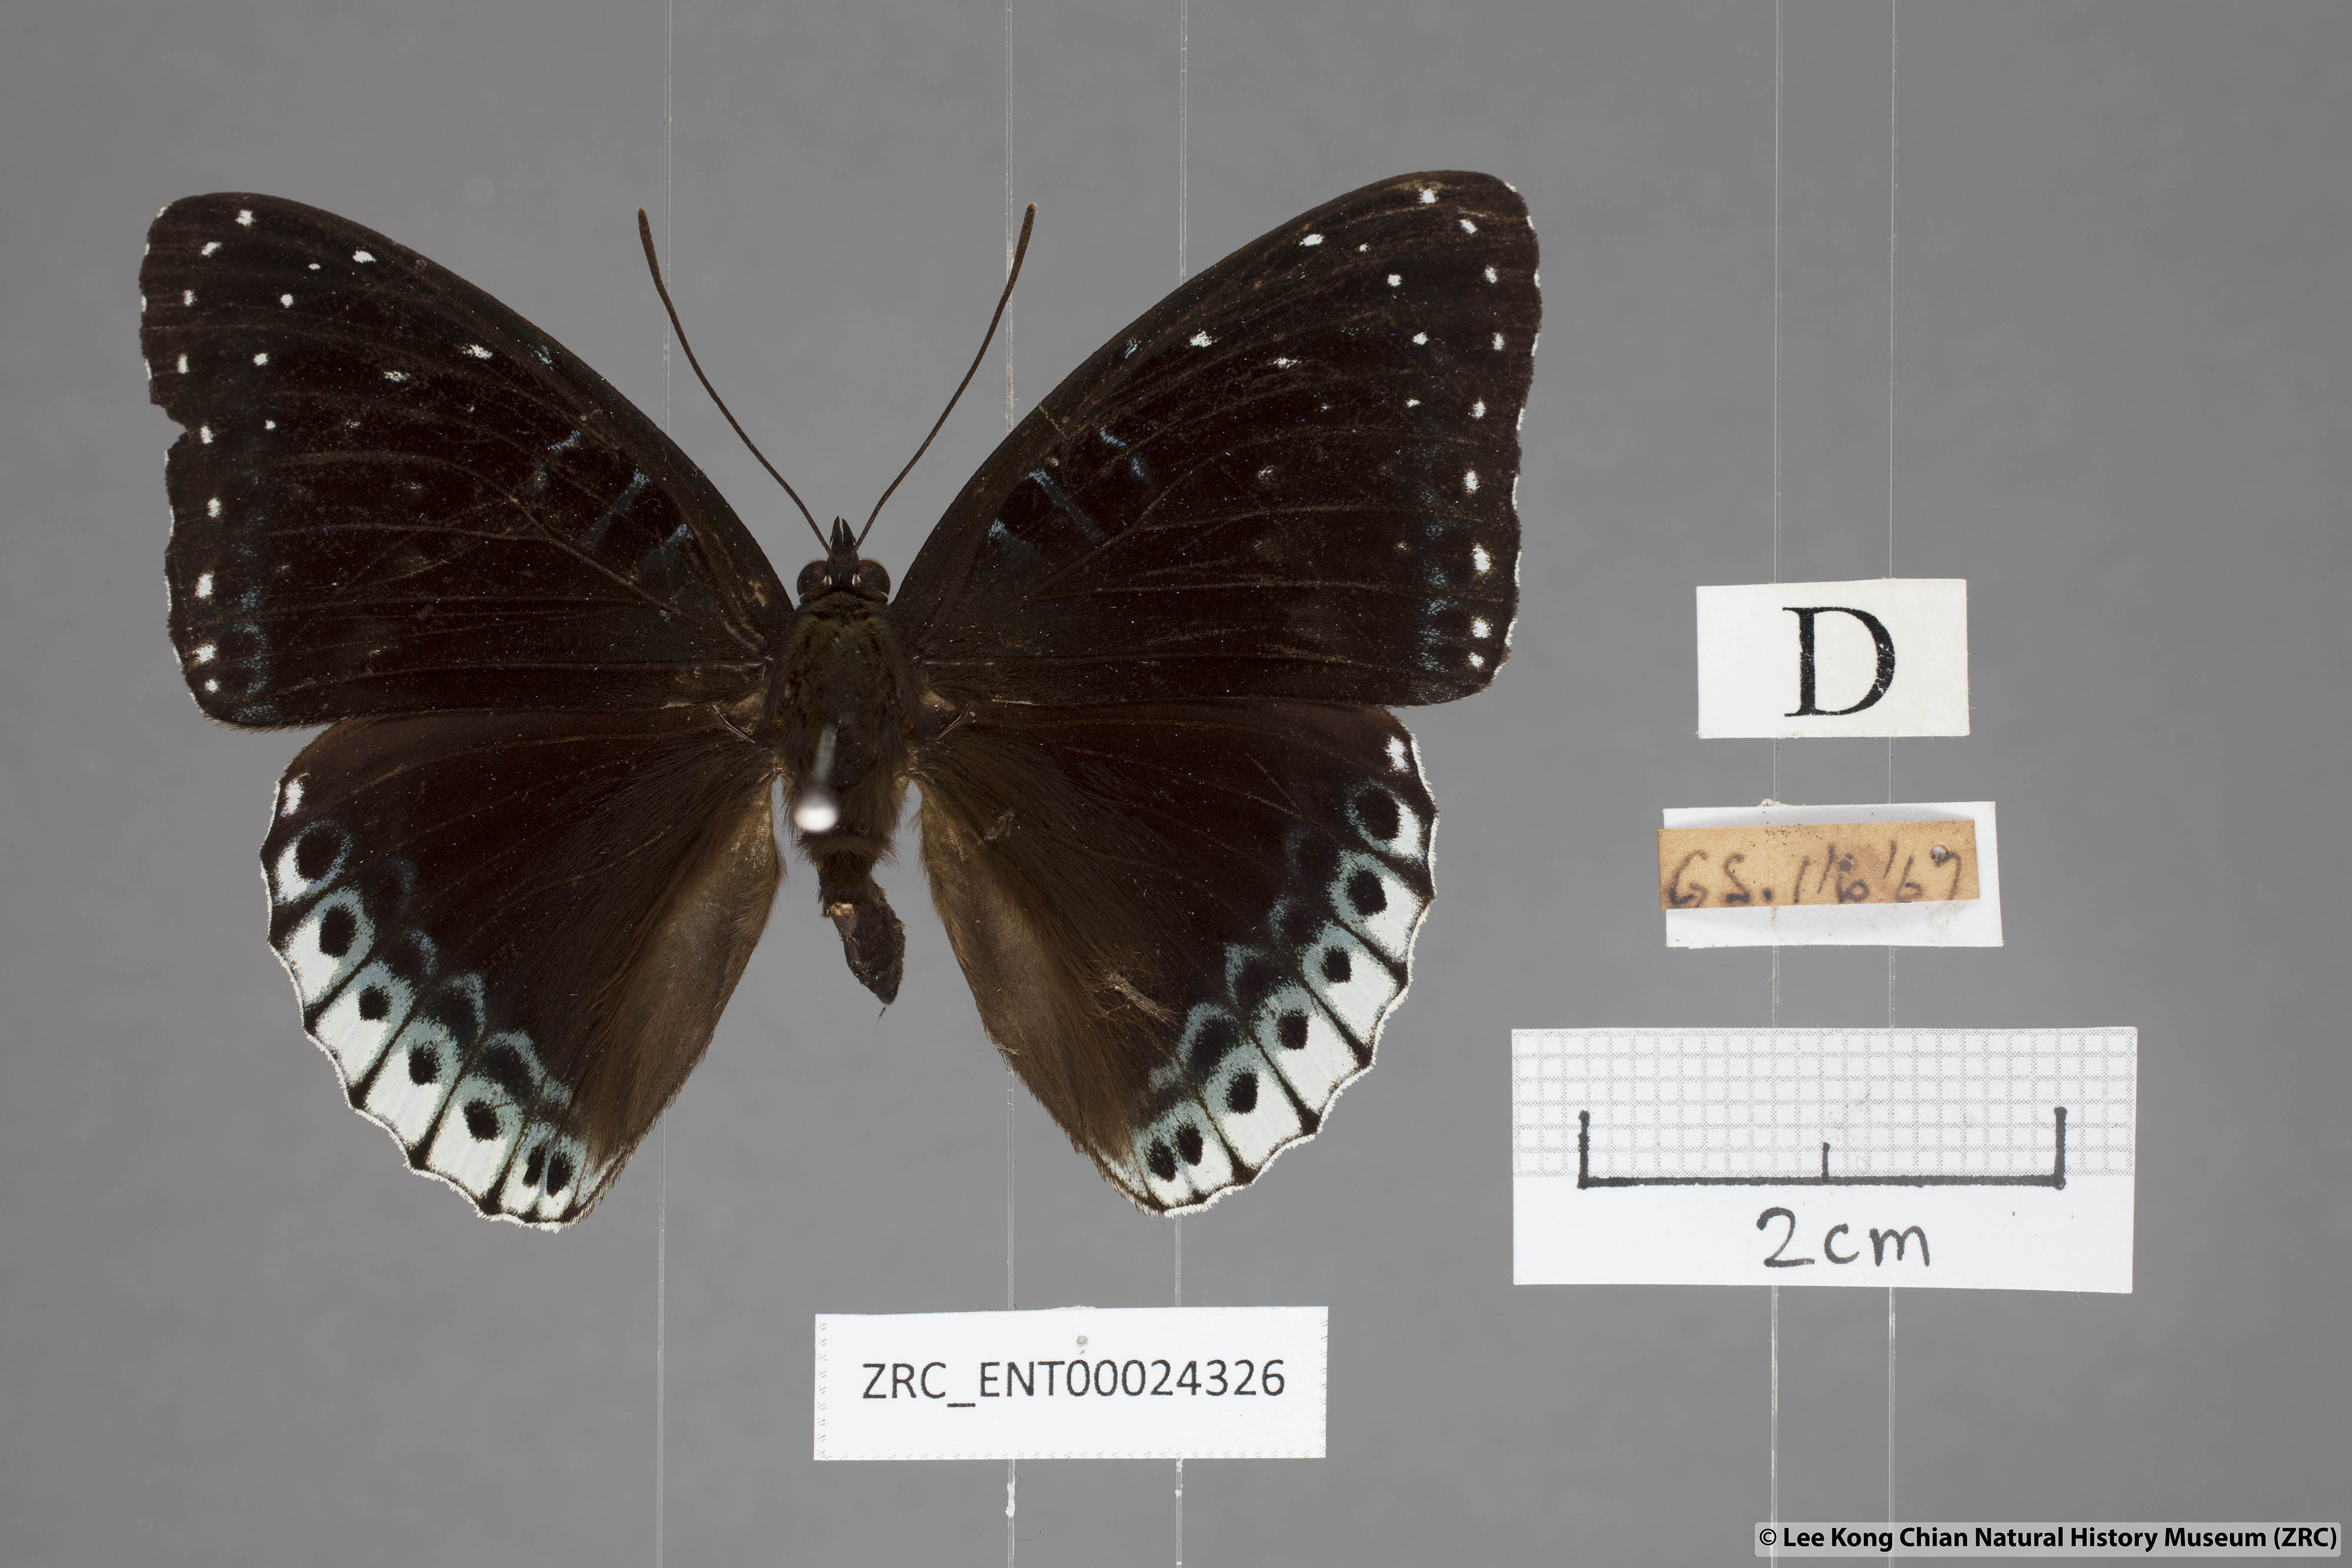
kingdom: Animalia
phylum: Arthropoda
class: Insecta
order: Lepidoptera
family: Nymphalidae
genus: Stibochiona
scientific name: Stibochiona nicea
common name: Popinjay
